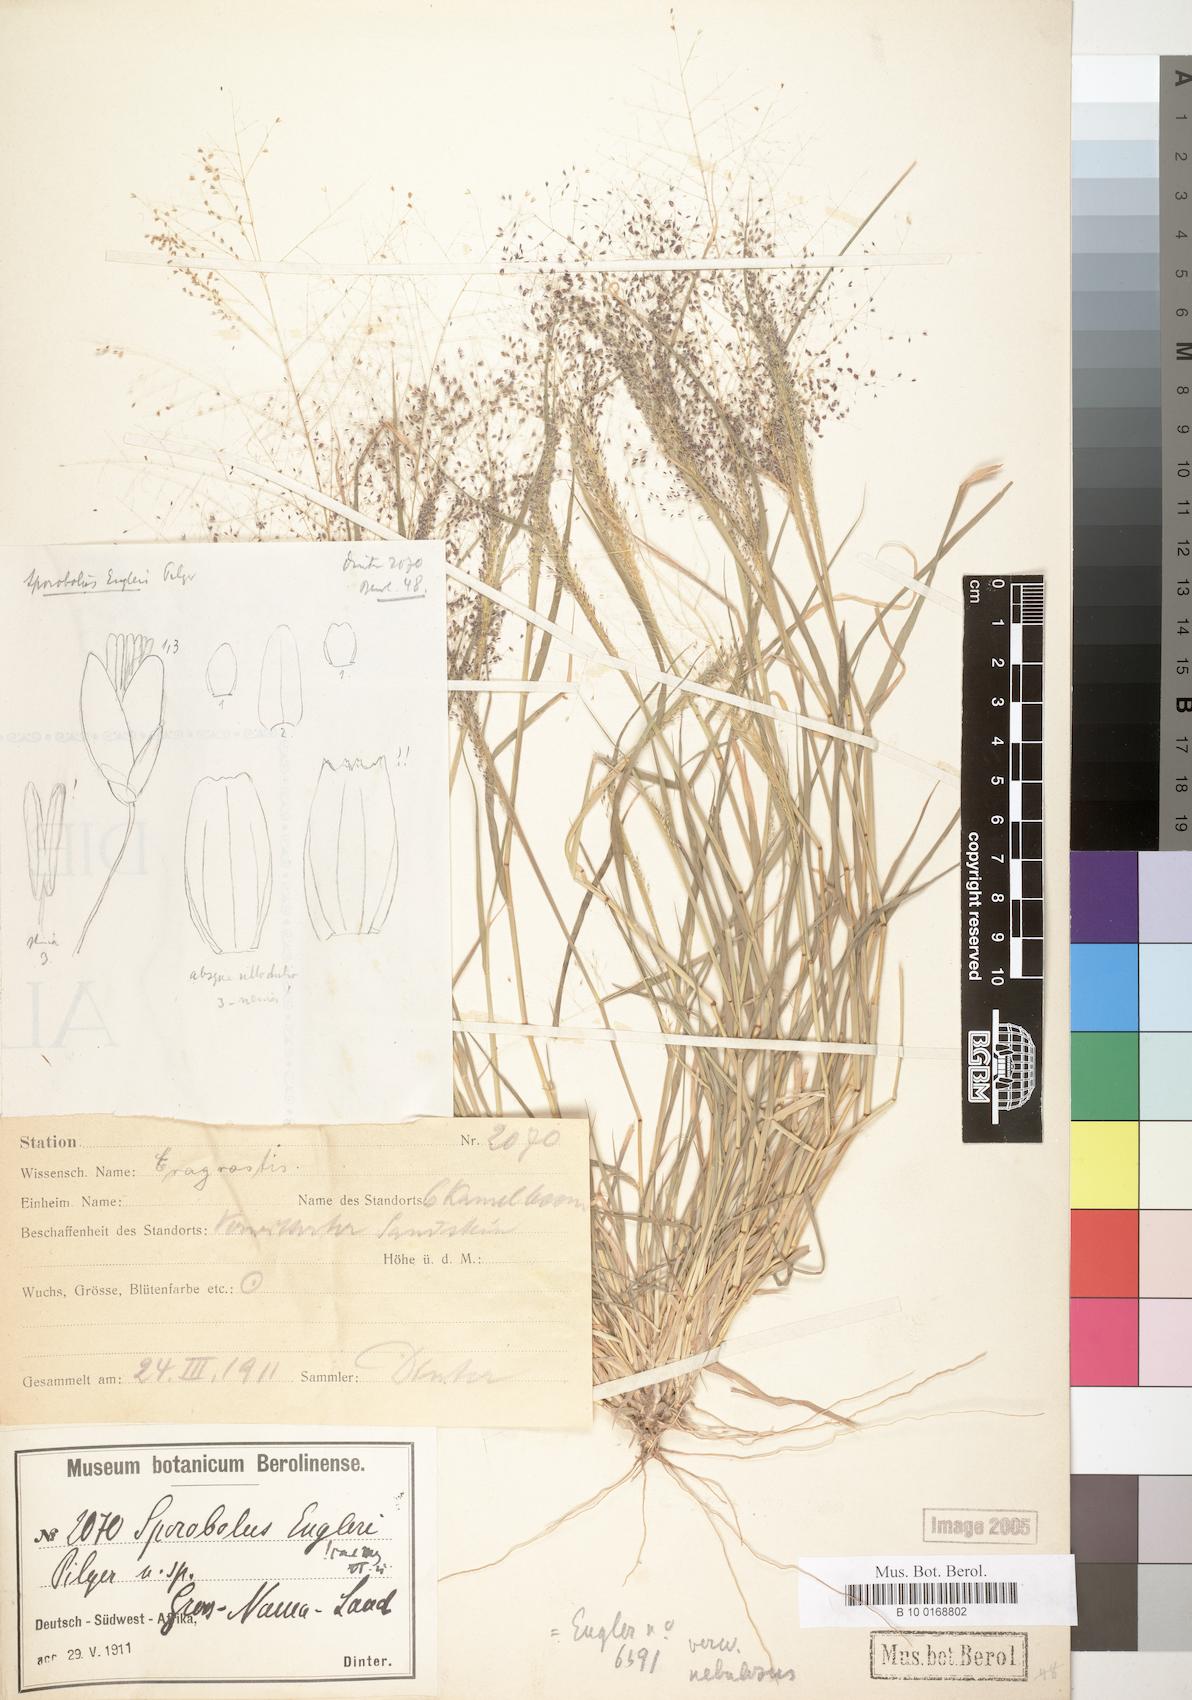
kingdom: Plantae
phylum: Tracheophyta
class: Liliopsida
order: Poales
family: Poaceae
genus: Sporobolus
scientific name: Sporobolus engleri
